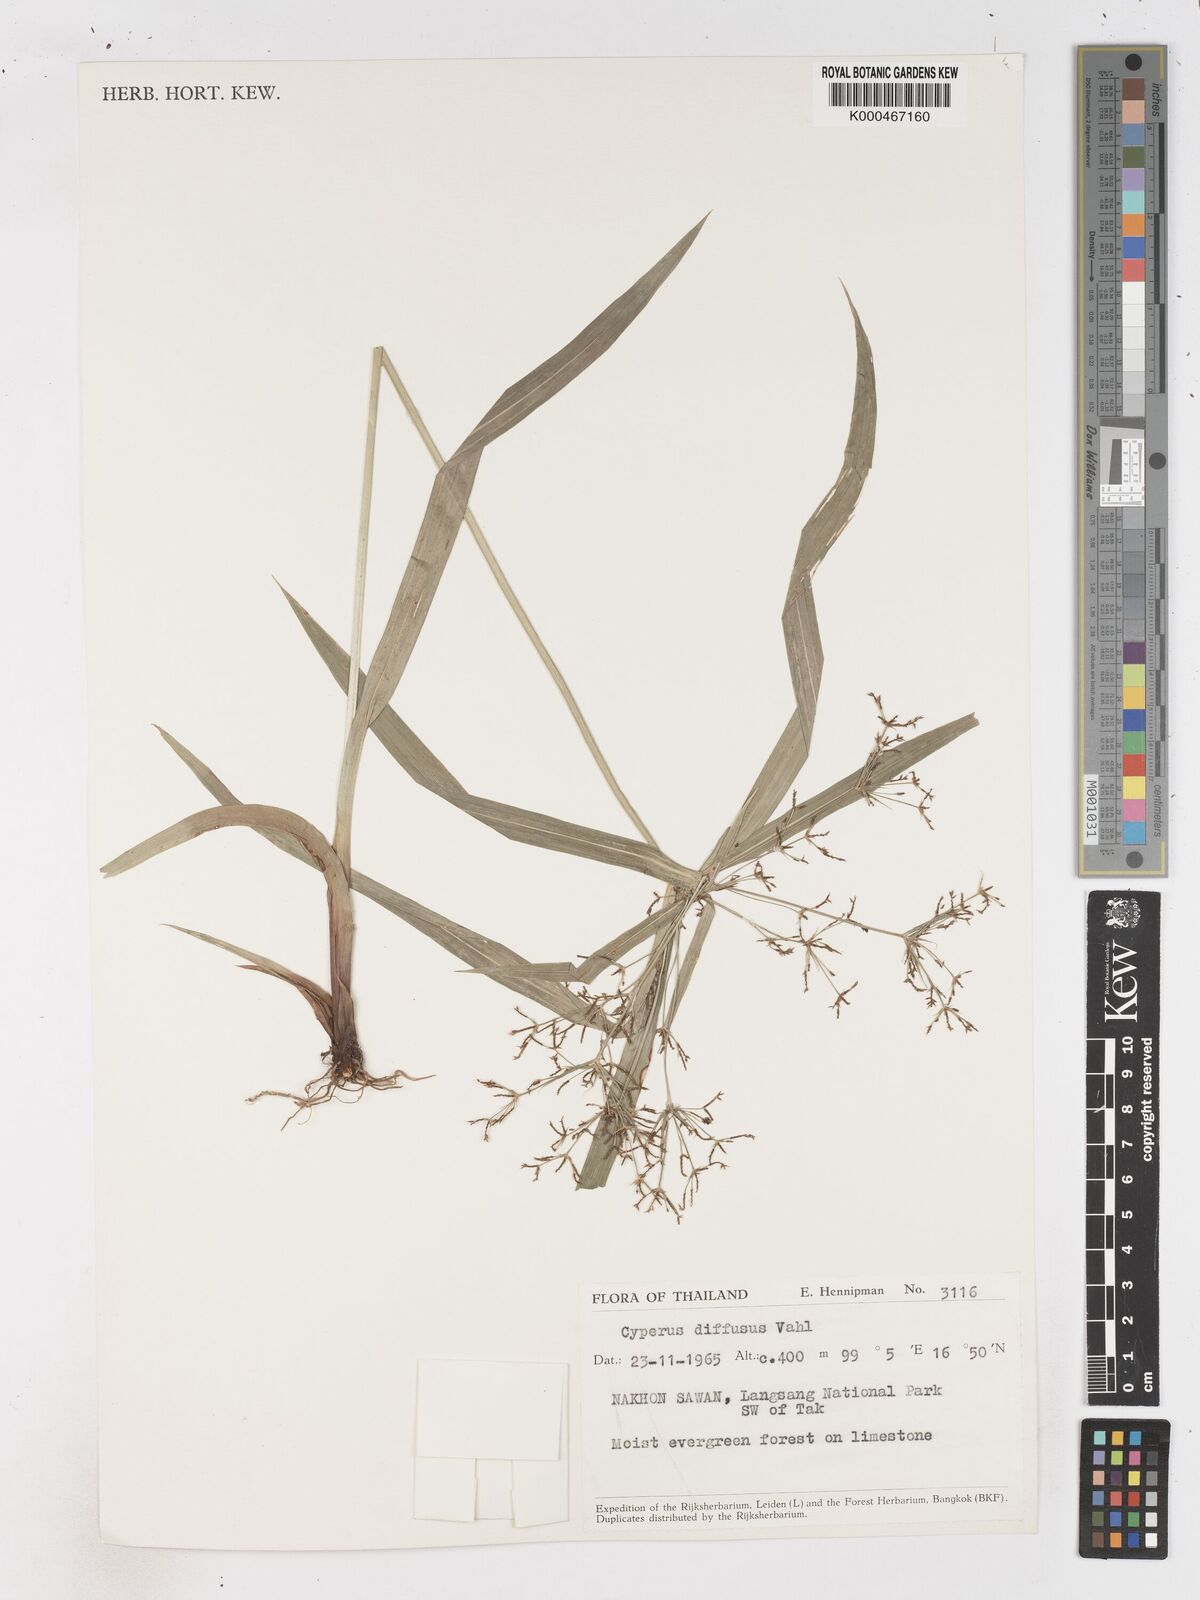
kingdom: Plantae
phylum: Tracheophyta
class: Liliopsida
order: Poales
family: Cyperaceae
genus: Cyperus
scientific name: Cyperus diffusus
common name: Dwarf umbrella grass
